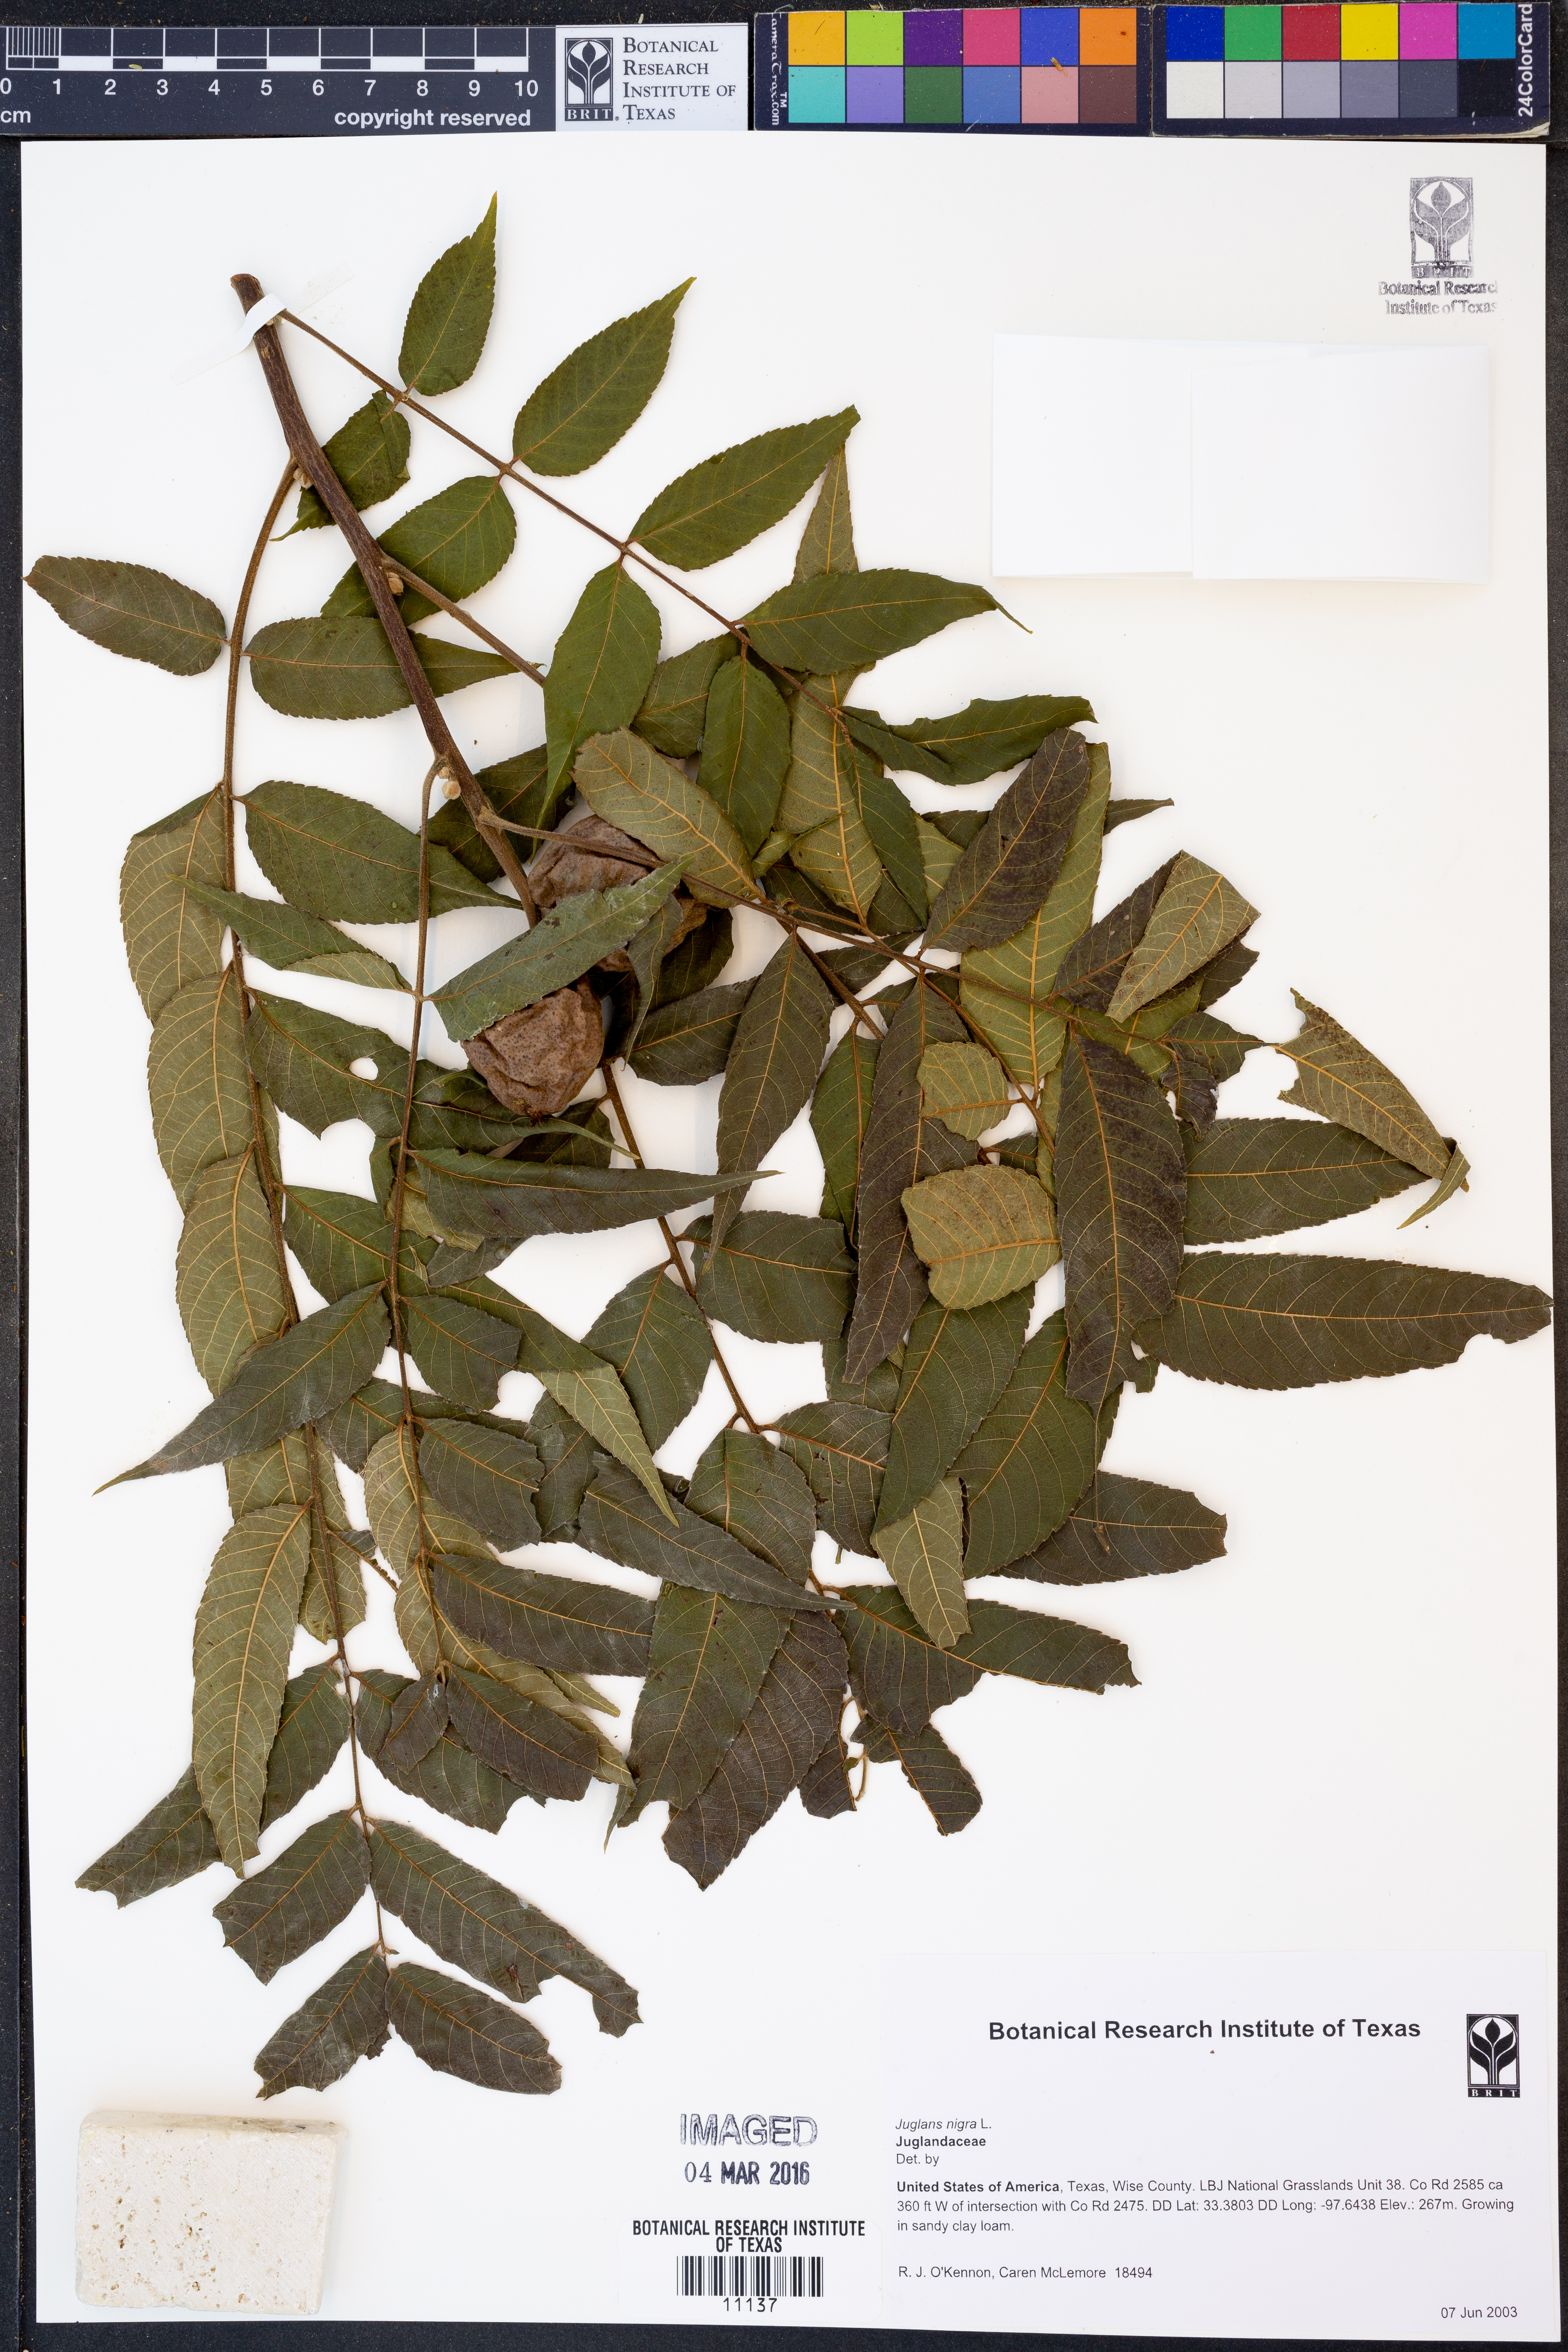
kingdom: Plantae
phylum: Tracheophyta
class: Magnoliopsida
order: Fagales
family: Juglandaceae
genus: Juglans
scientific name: Juglans nigra
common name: Black walnut
